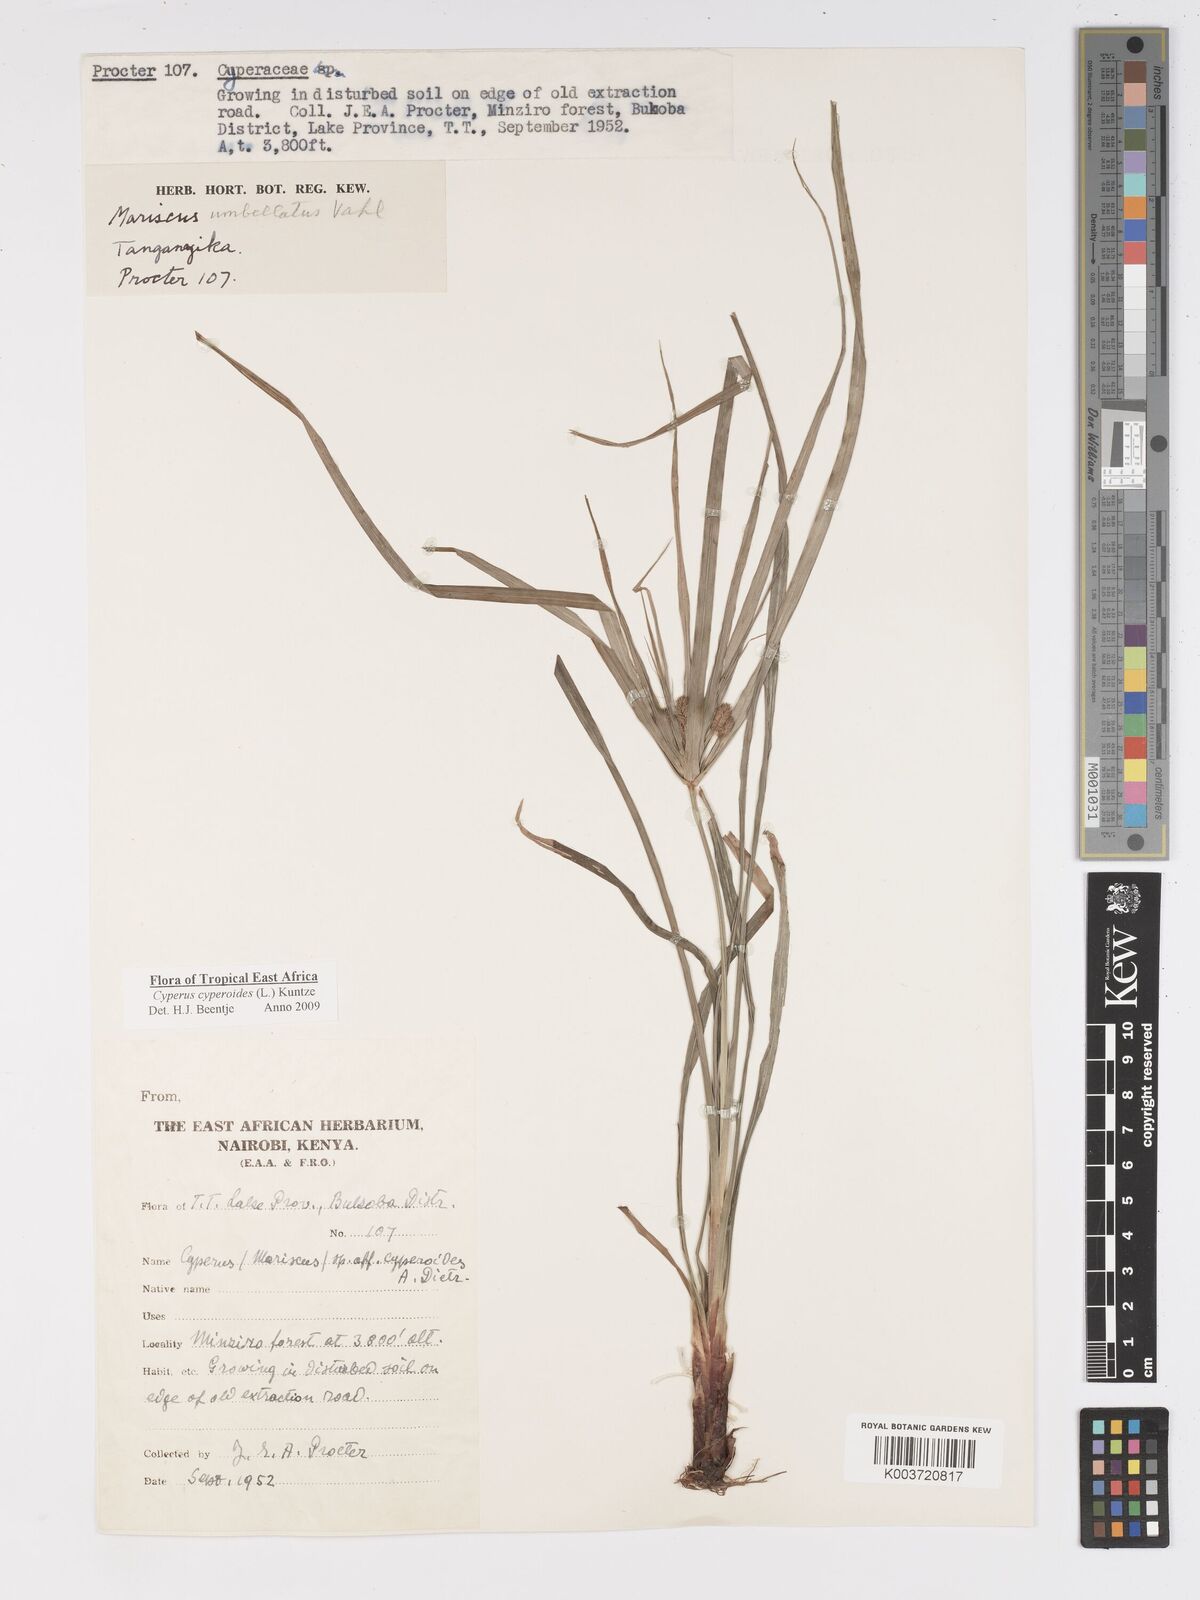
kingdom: Plantae
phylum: Tracheophyta
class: Liliopsida
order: Poales
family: Cyperaceae
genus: Cyperus
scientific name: Cyperus cyperoides
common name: Pacific island flat sedge
